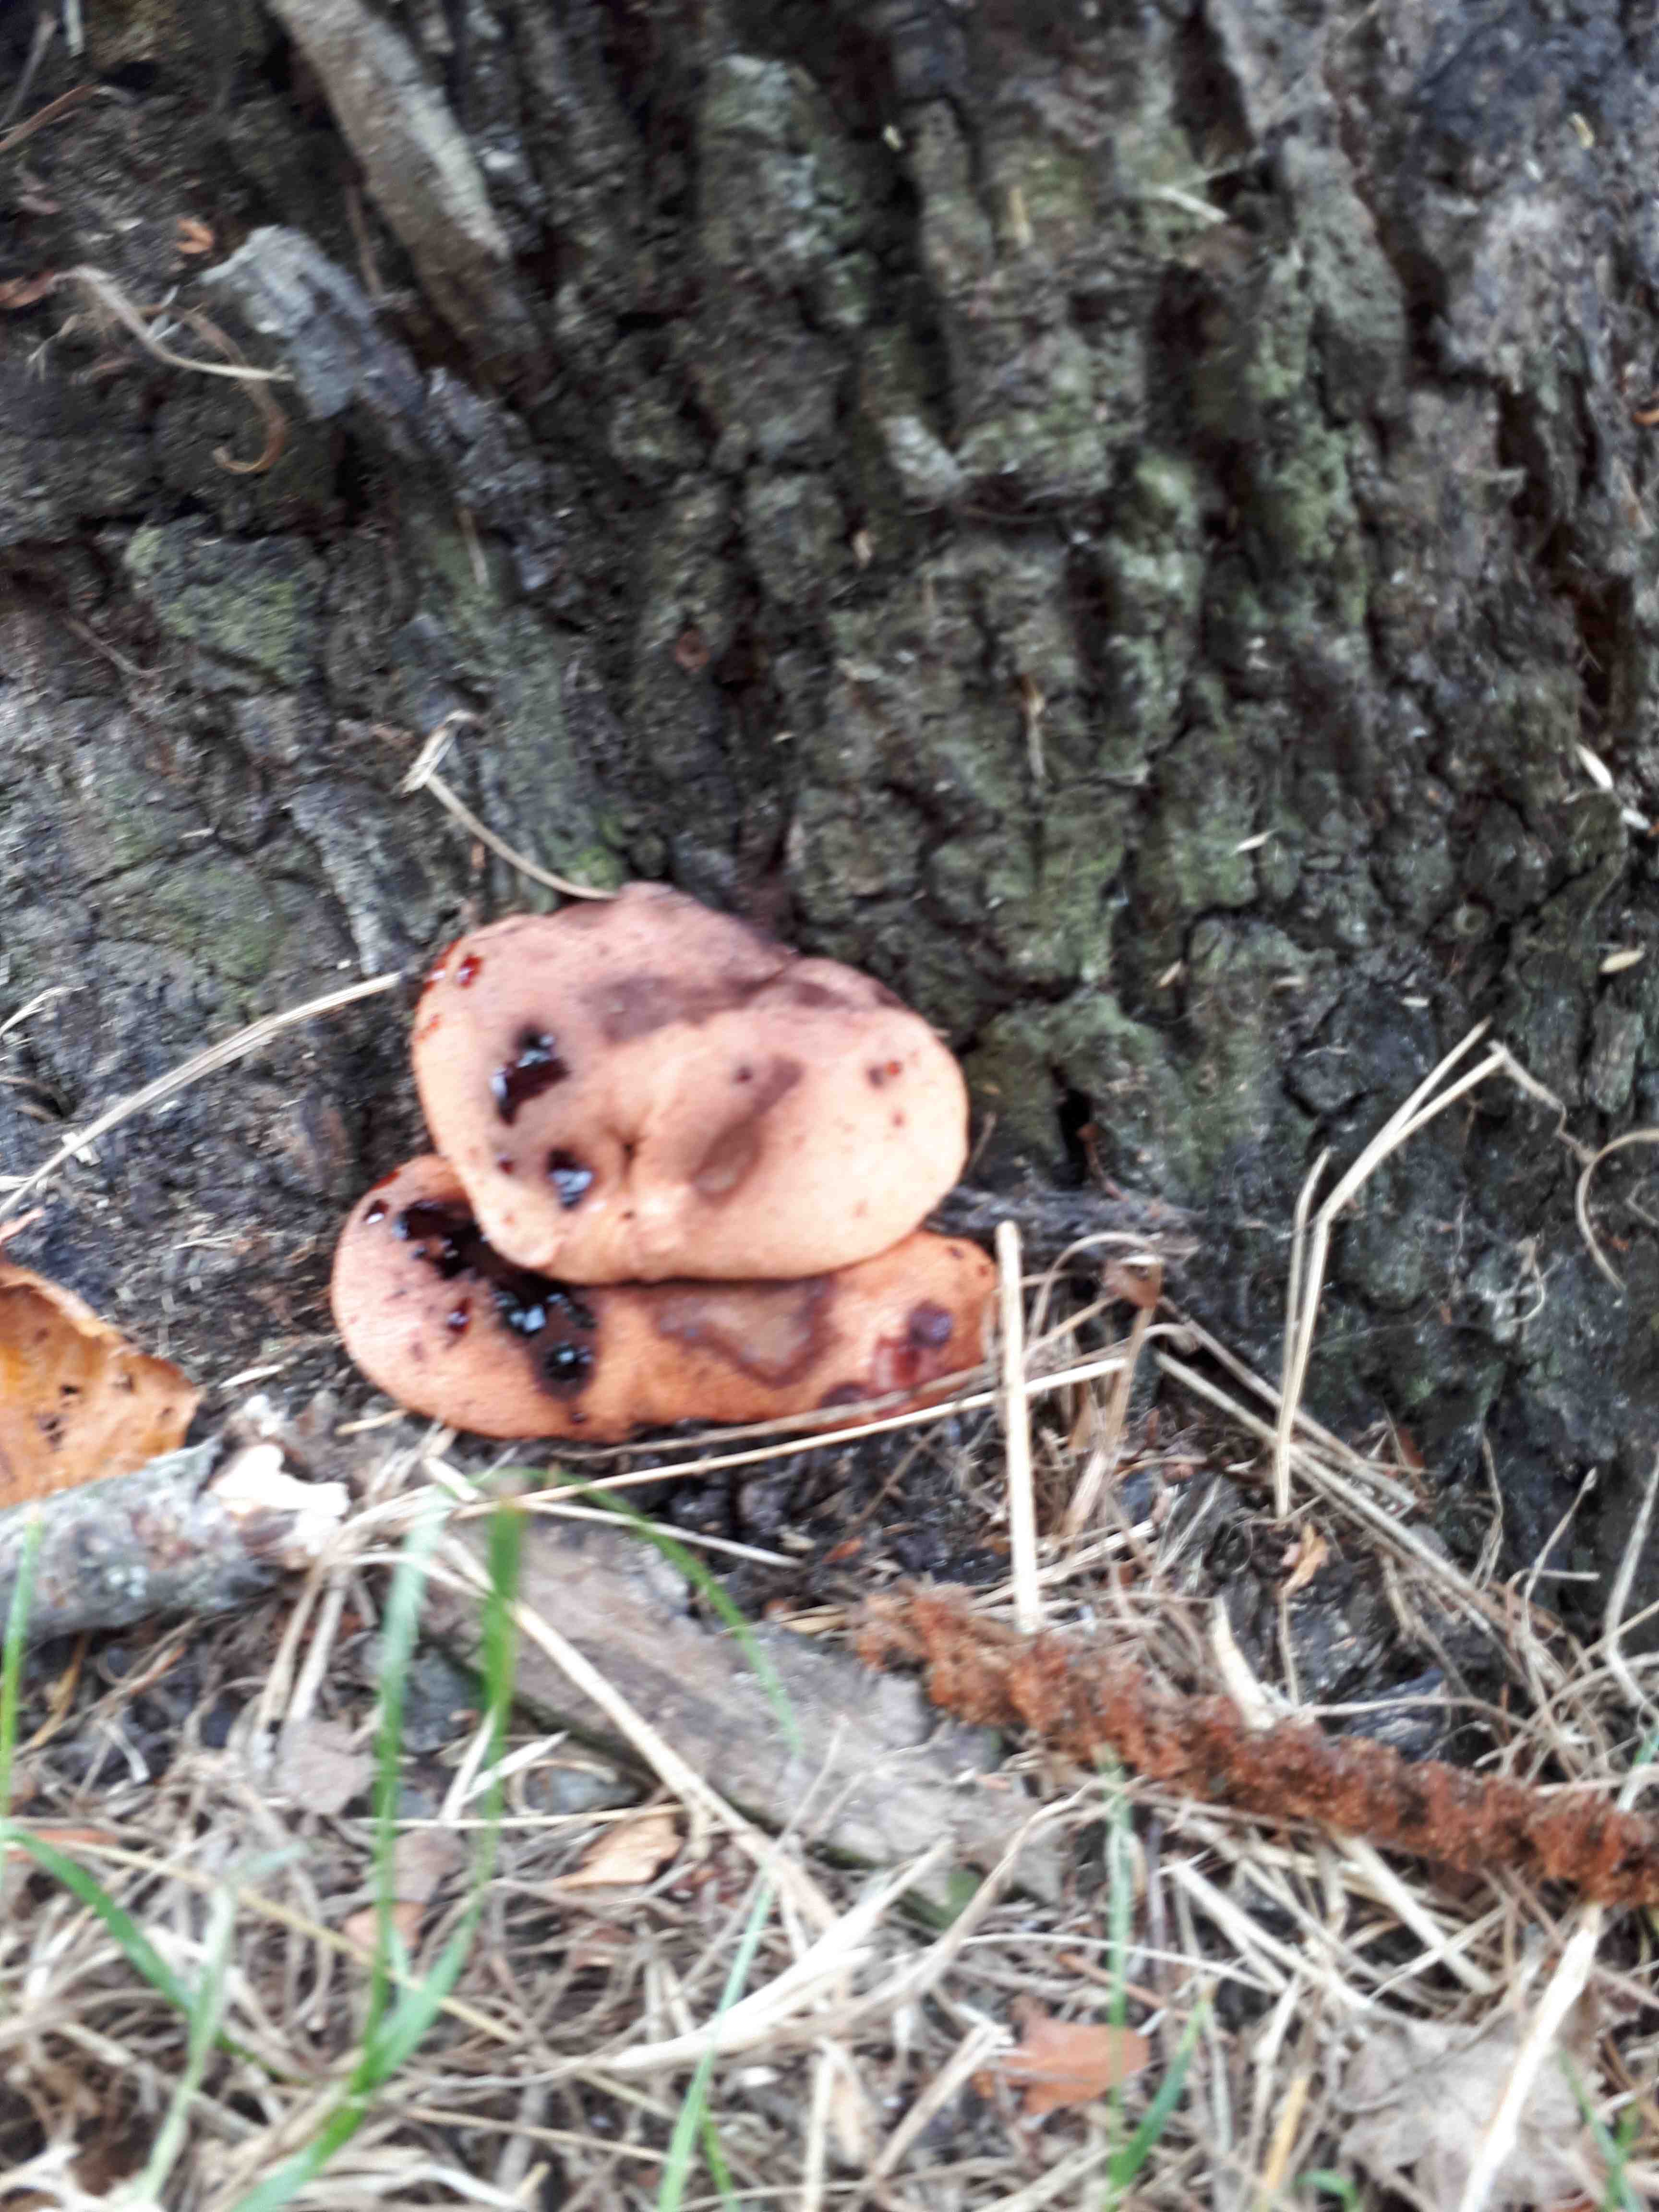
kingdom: Fungi
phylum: Basidiomycota
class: Agaricomycetes
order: Agaricales
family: Fistulinaceae
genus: Fistulina
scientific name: Fistulina hepatica
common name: oksetunge
